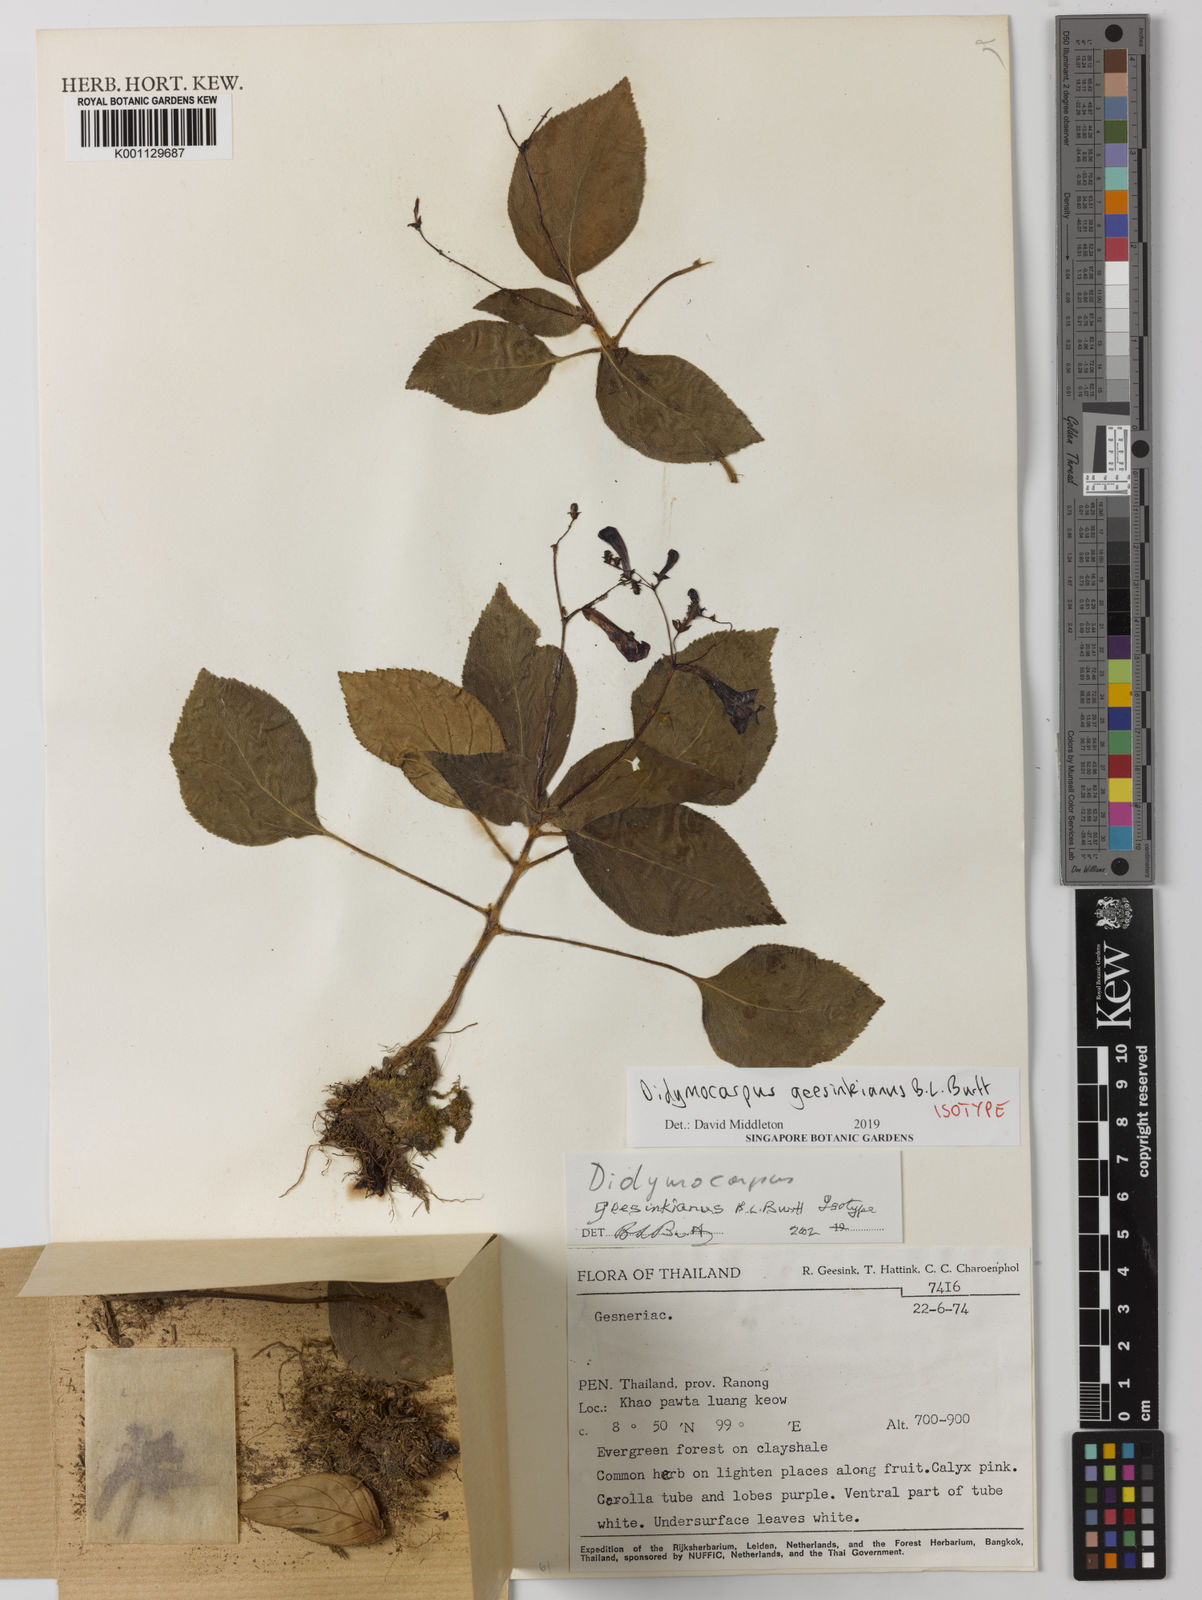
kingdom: Plantae
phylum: Tracheophyta
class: Magnoliopsida
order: Lamiales
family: Gesneriaceae
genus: Didymocarpus
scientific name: Didymocarpus geesinkianus
